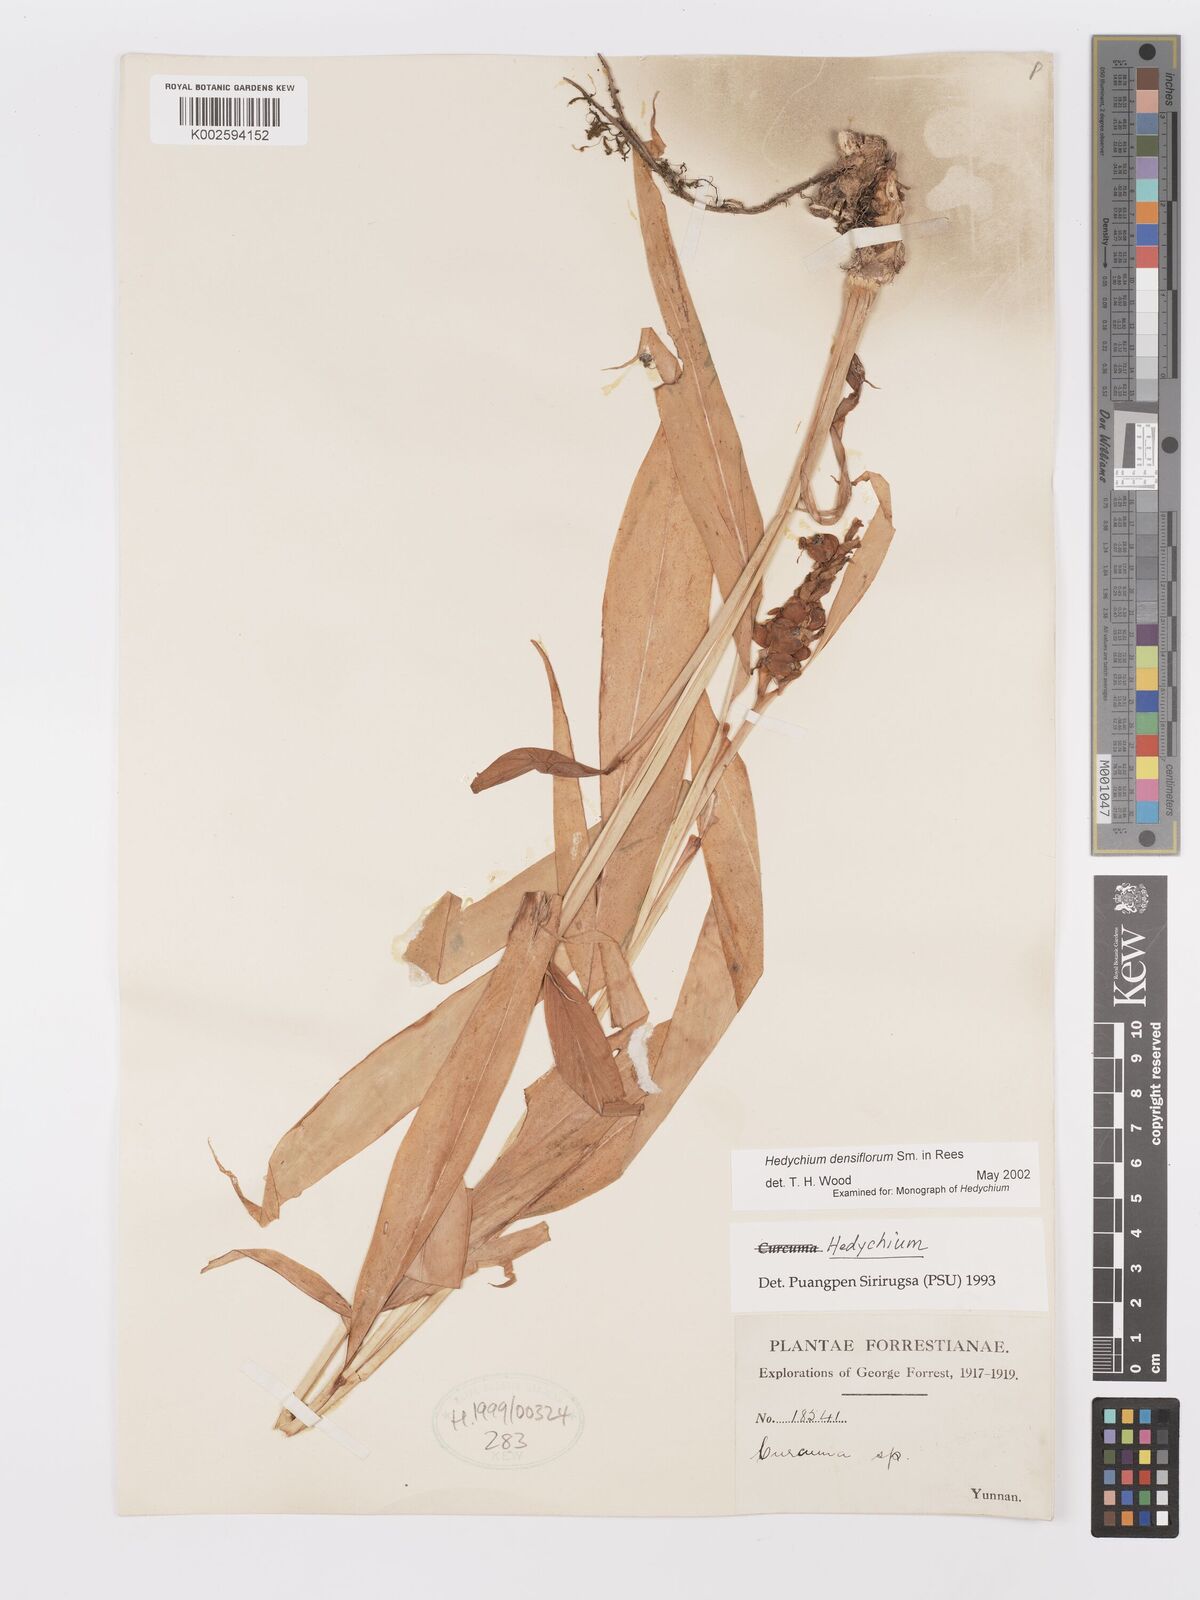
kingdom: Plantae
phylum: Tracheophyta
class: Liliopsida
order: Zingiberales
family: Zingiberaceae
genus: Hedychium
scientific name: Hedychium densiflorum
